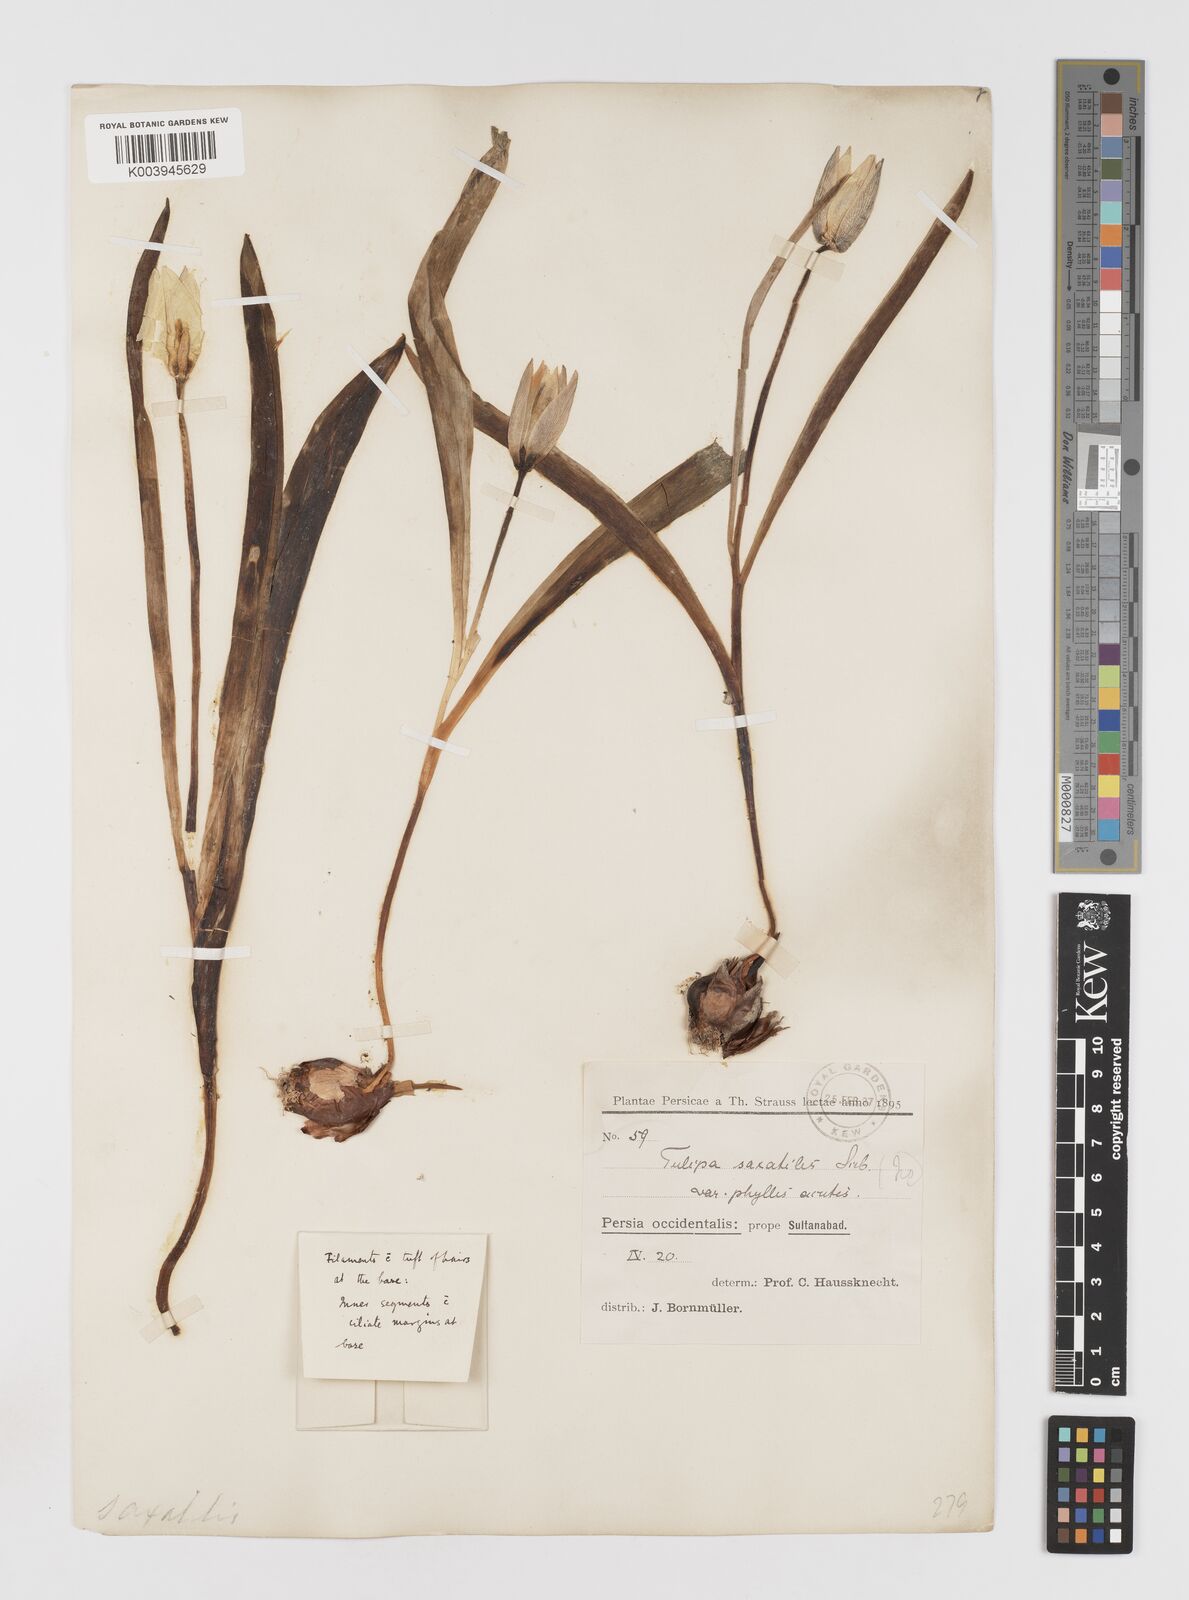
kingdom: Plantae
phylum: Tracheophyta
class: Liliopsida
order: Liliales
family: Liliaceae
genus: Tulipa
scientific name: Tulipa saxatilis
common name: Cretan tulip
